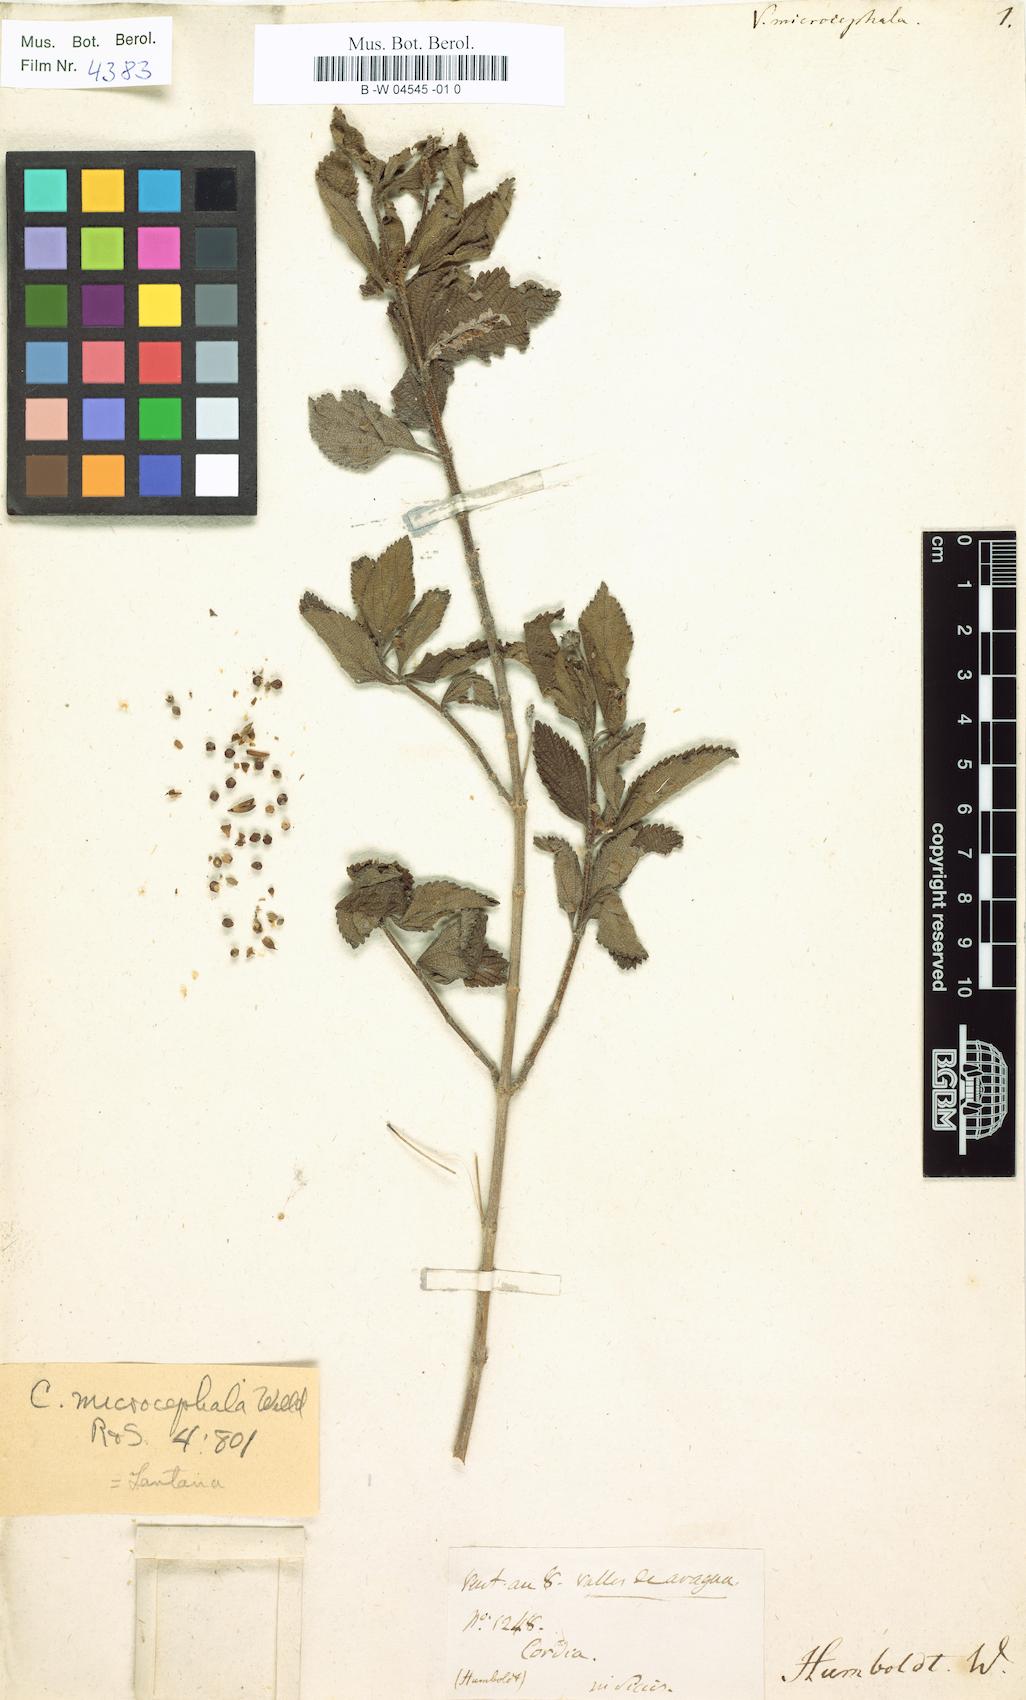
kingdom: Plantae
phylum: Tracheophyta
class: Magnoliopsida
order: Boraginales
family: Cordiaceae
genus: Varronia
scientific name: Varronia microcephala
